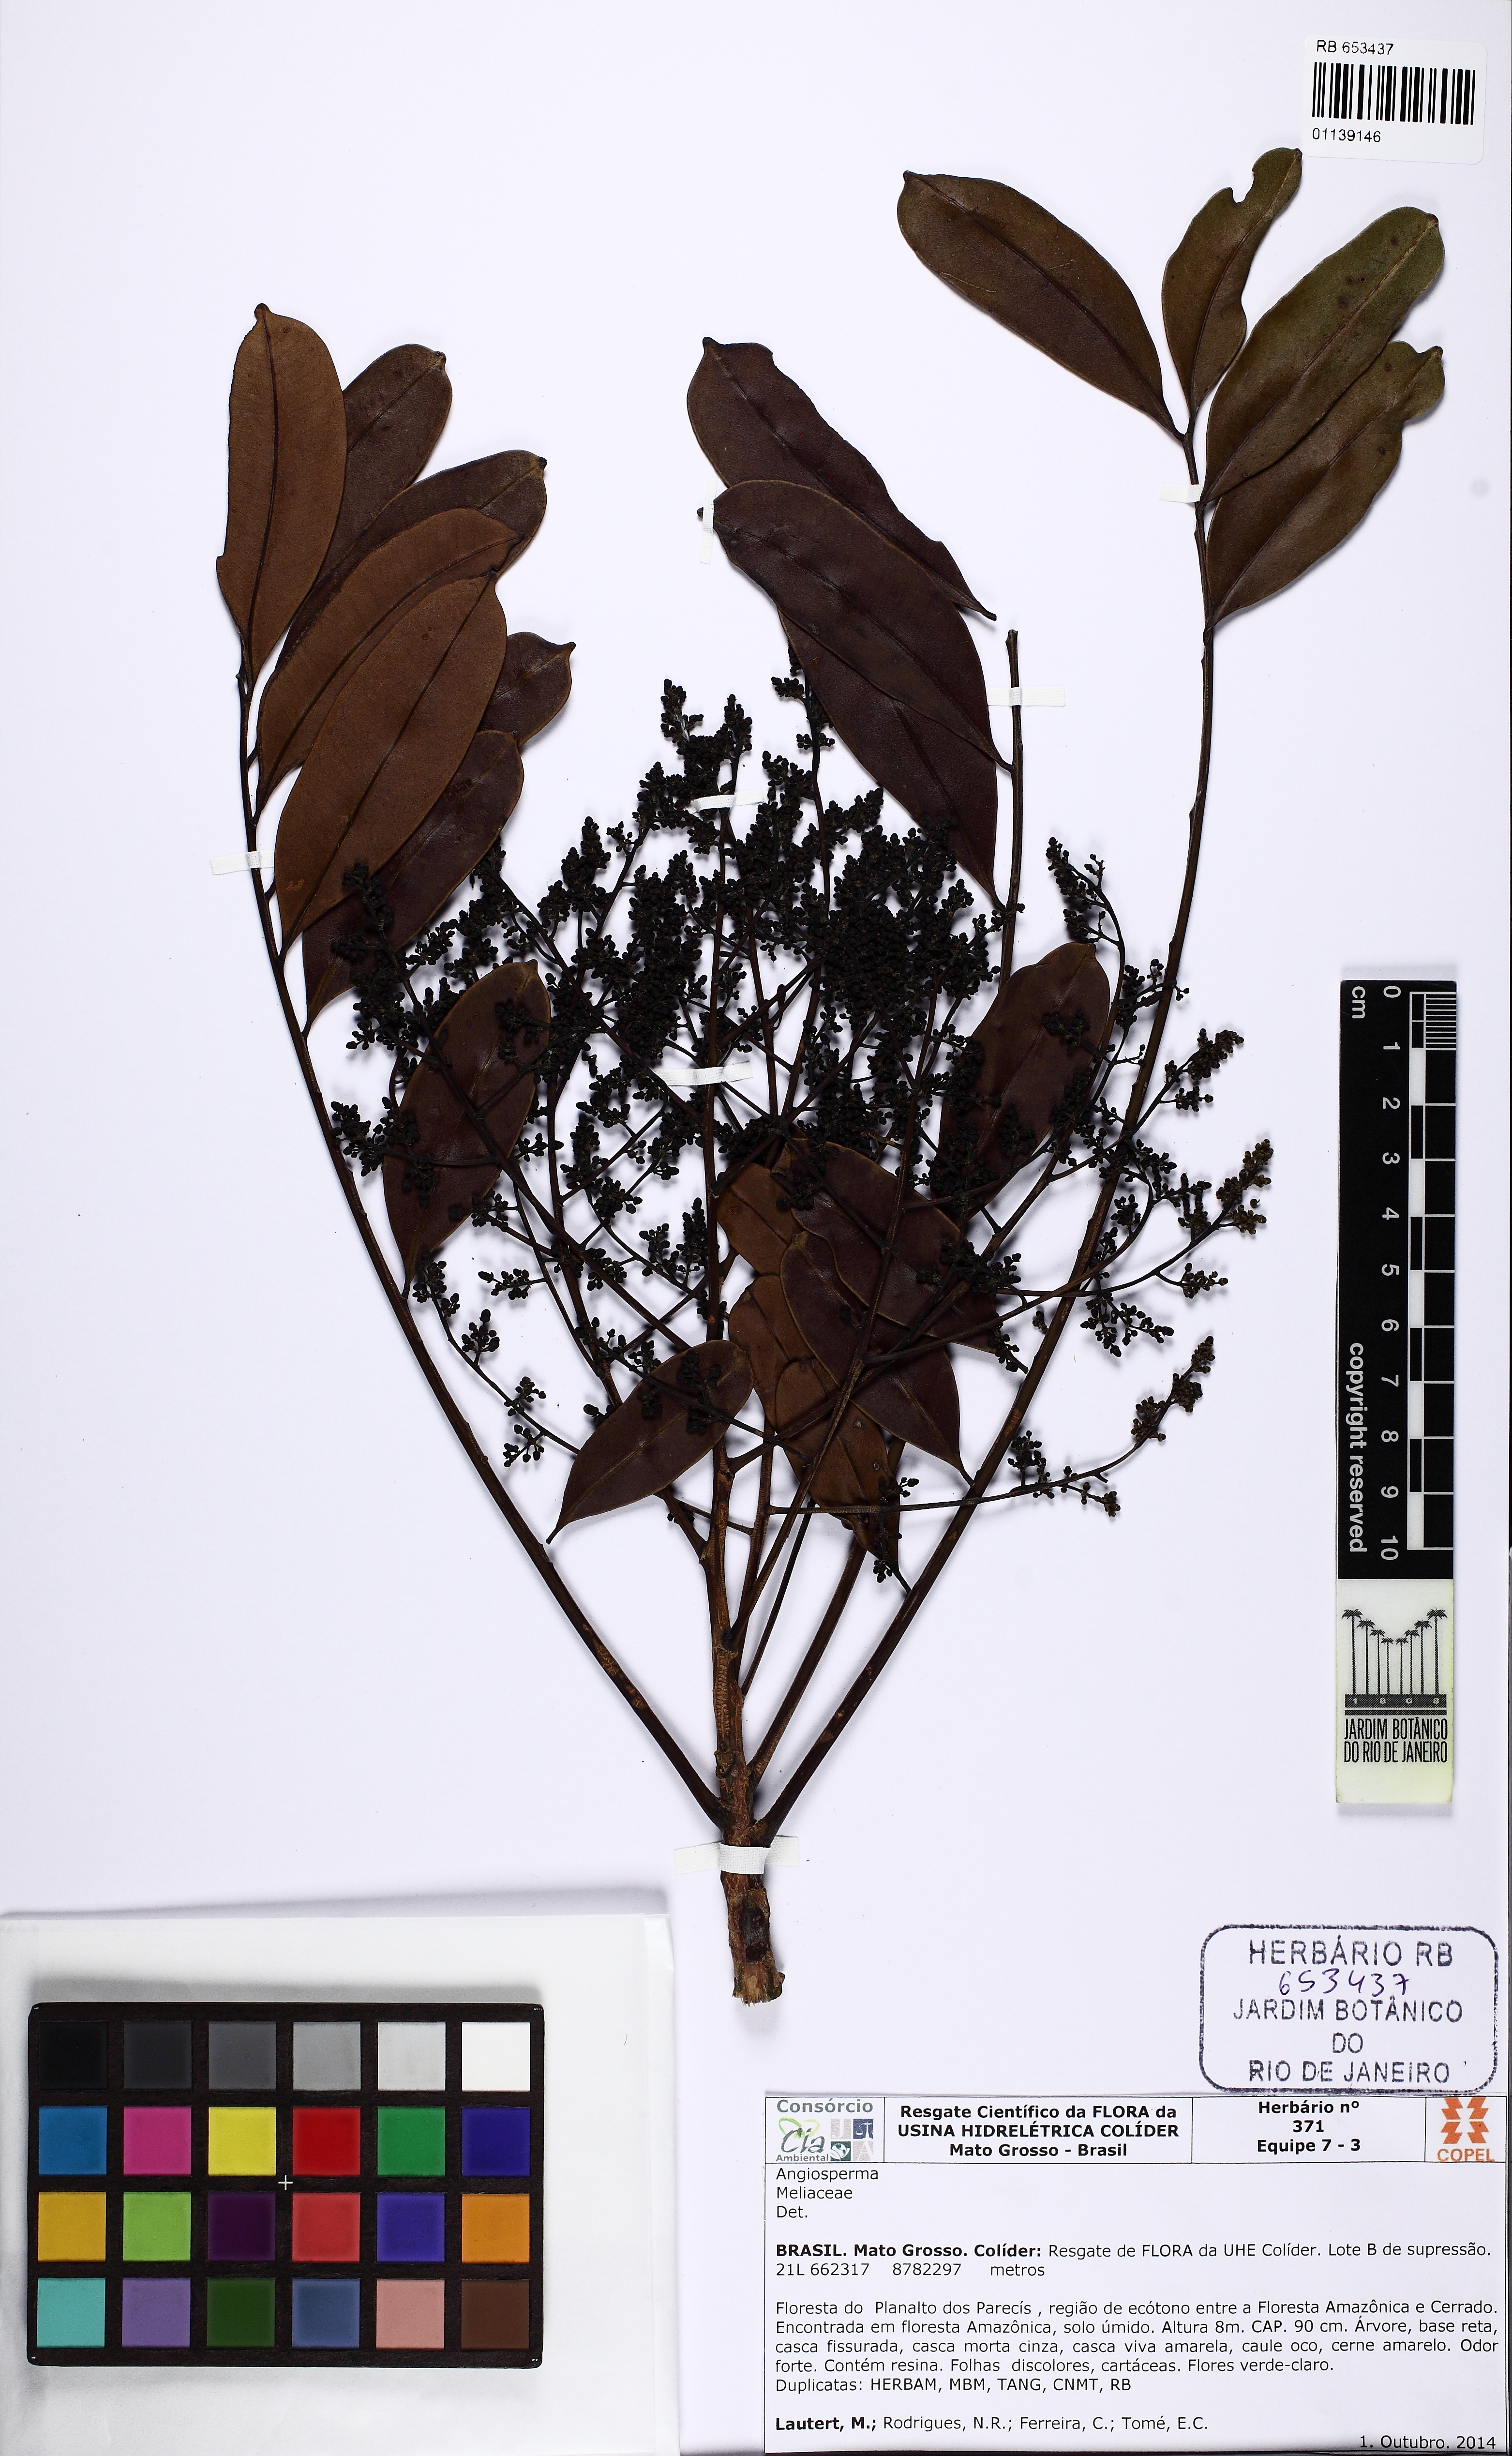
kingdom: Plantae
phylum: Tracheophyta
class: Magnoliopsida
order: Sapindales
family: Simaroubaceae
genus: Simarouba
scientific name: Simarouba amara
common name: Bitterwood
